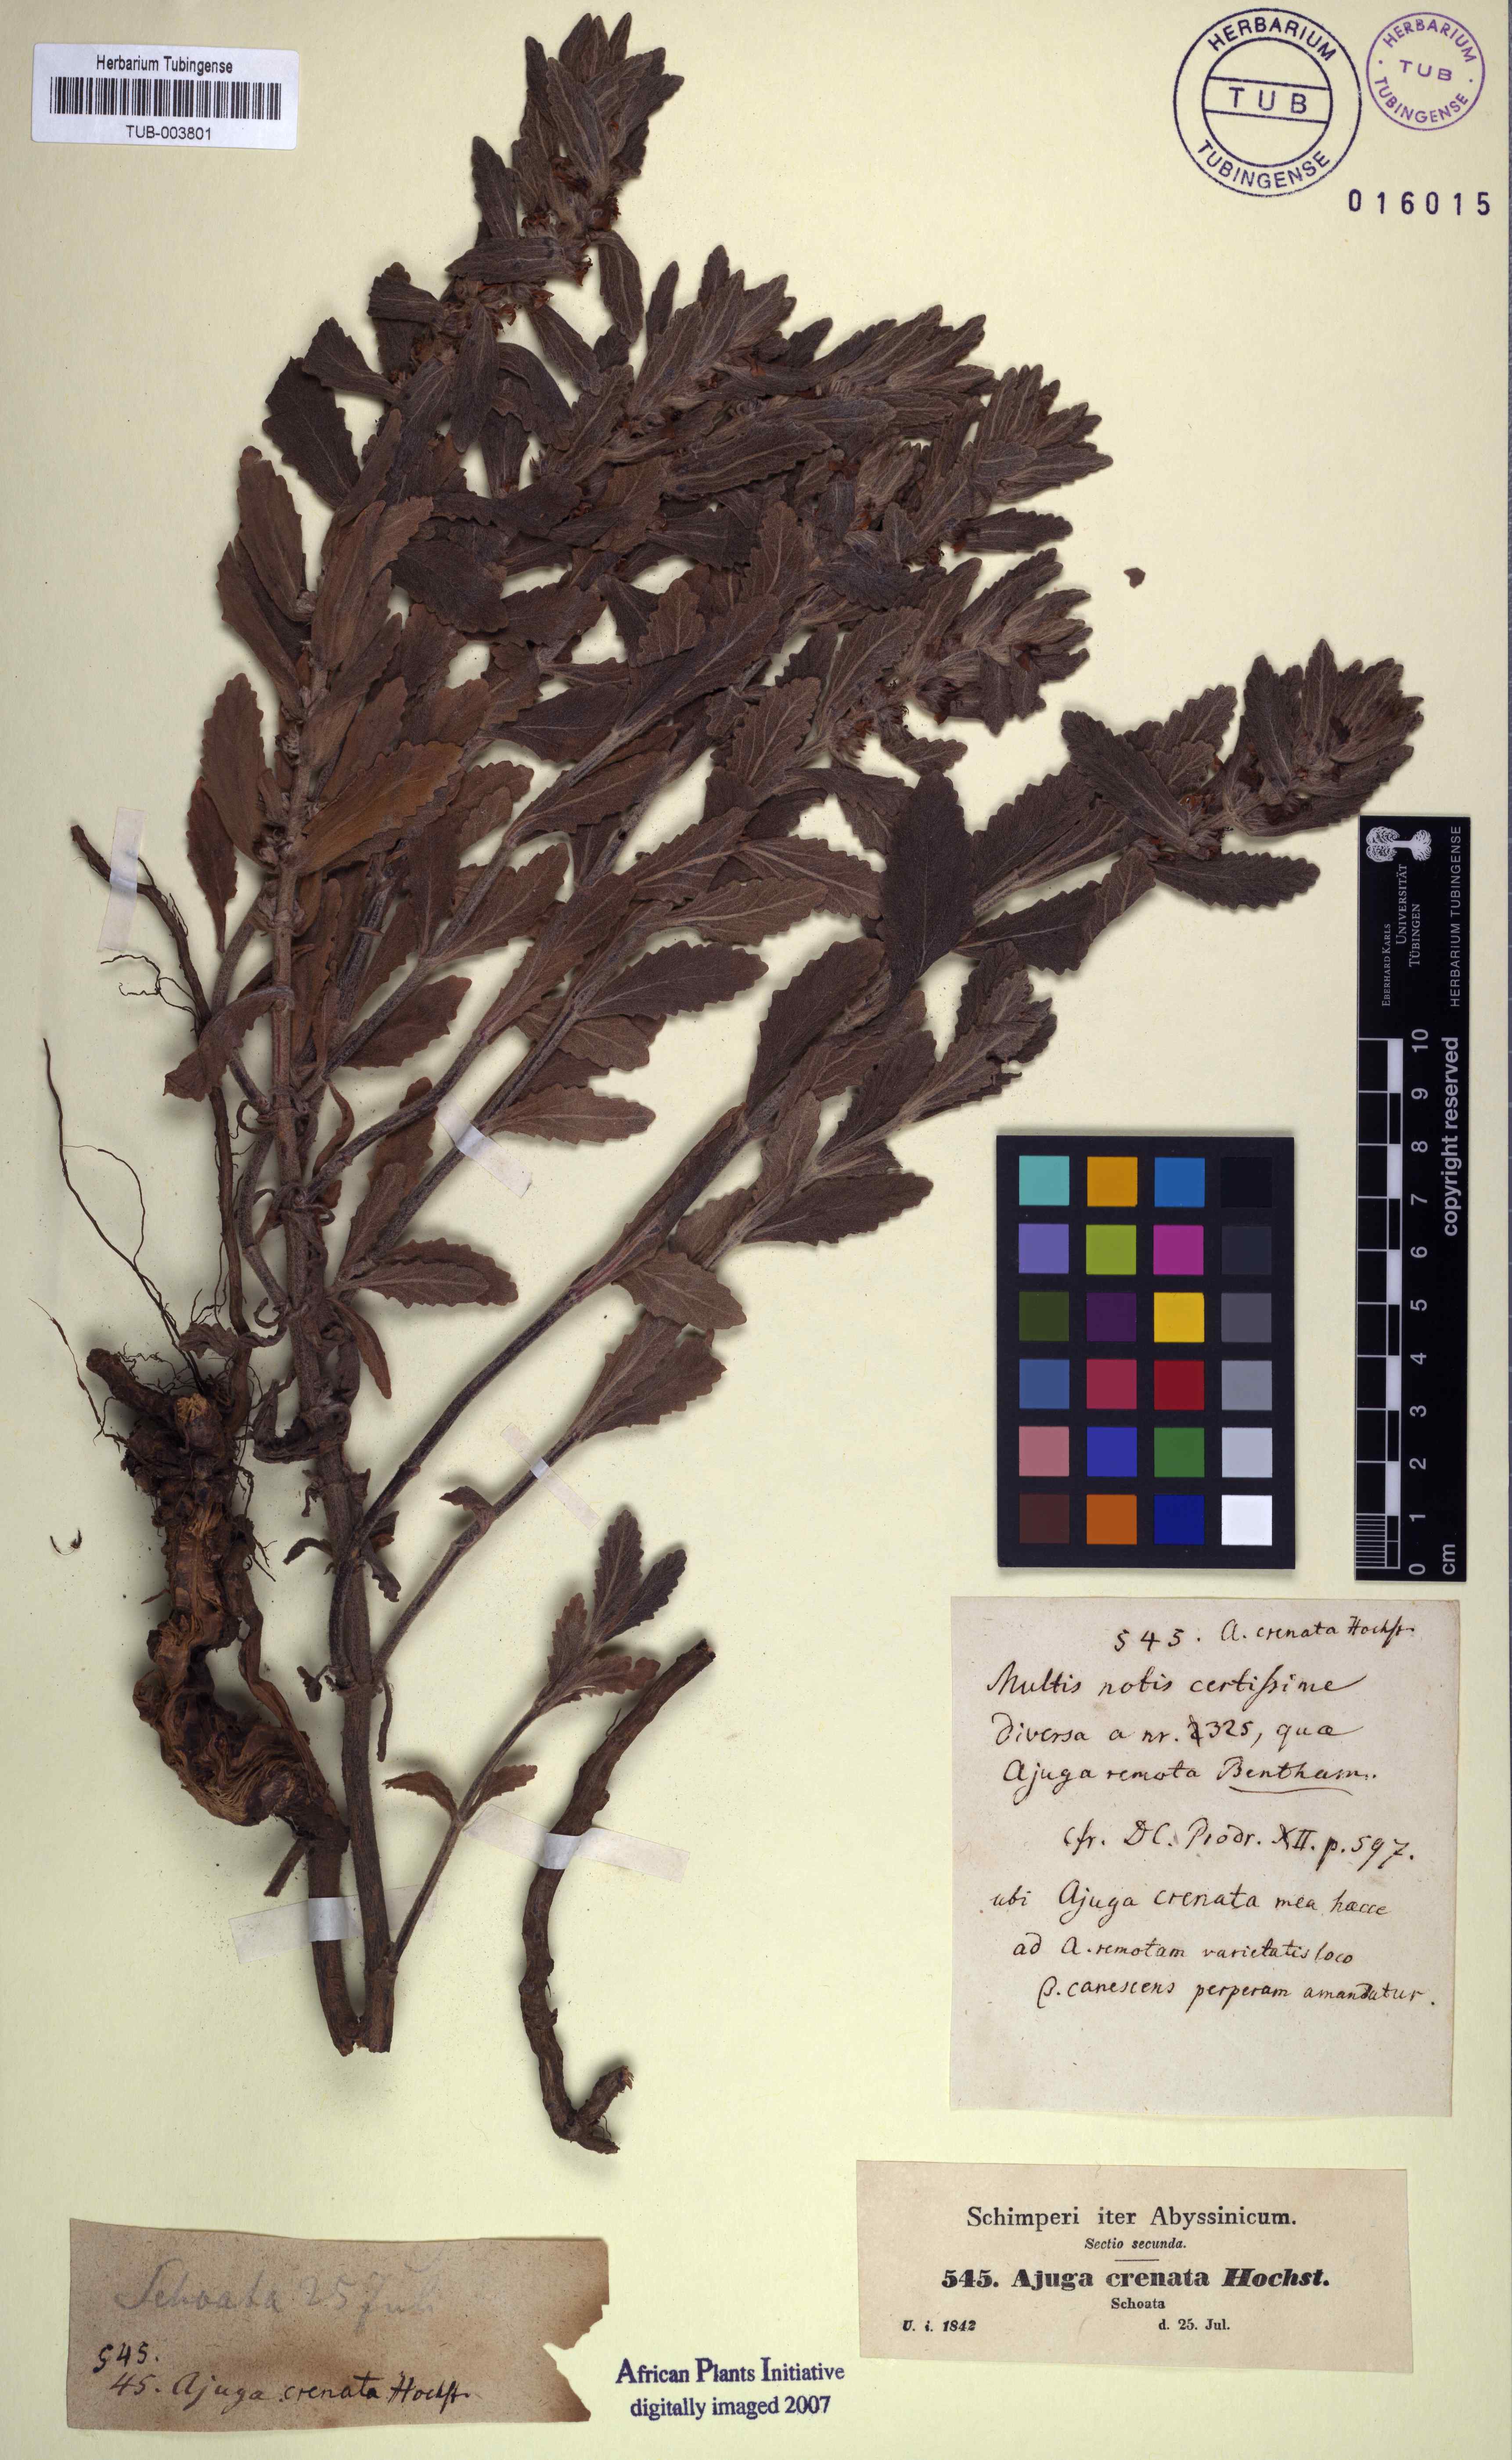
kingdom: Plantae
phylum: Tracheophyta
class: Magnoliopsida
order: Lamiales
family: Lamiaceae
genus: Ajuga
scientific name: Ajuga integrifolia
